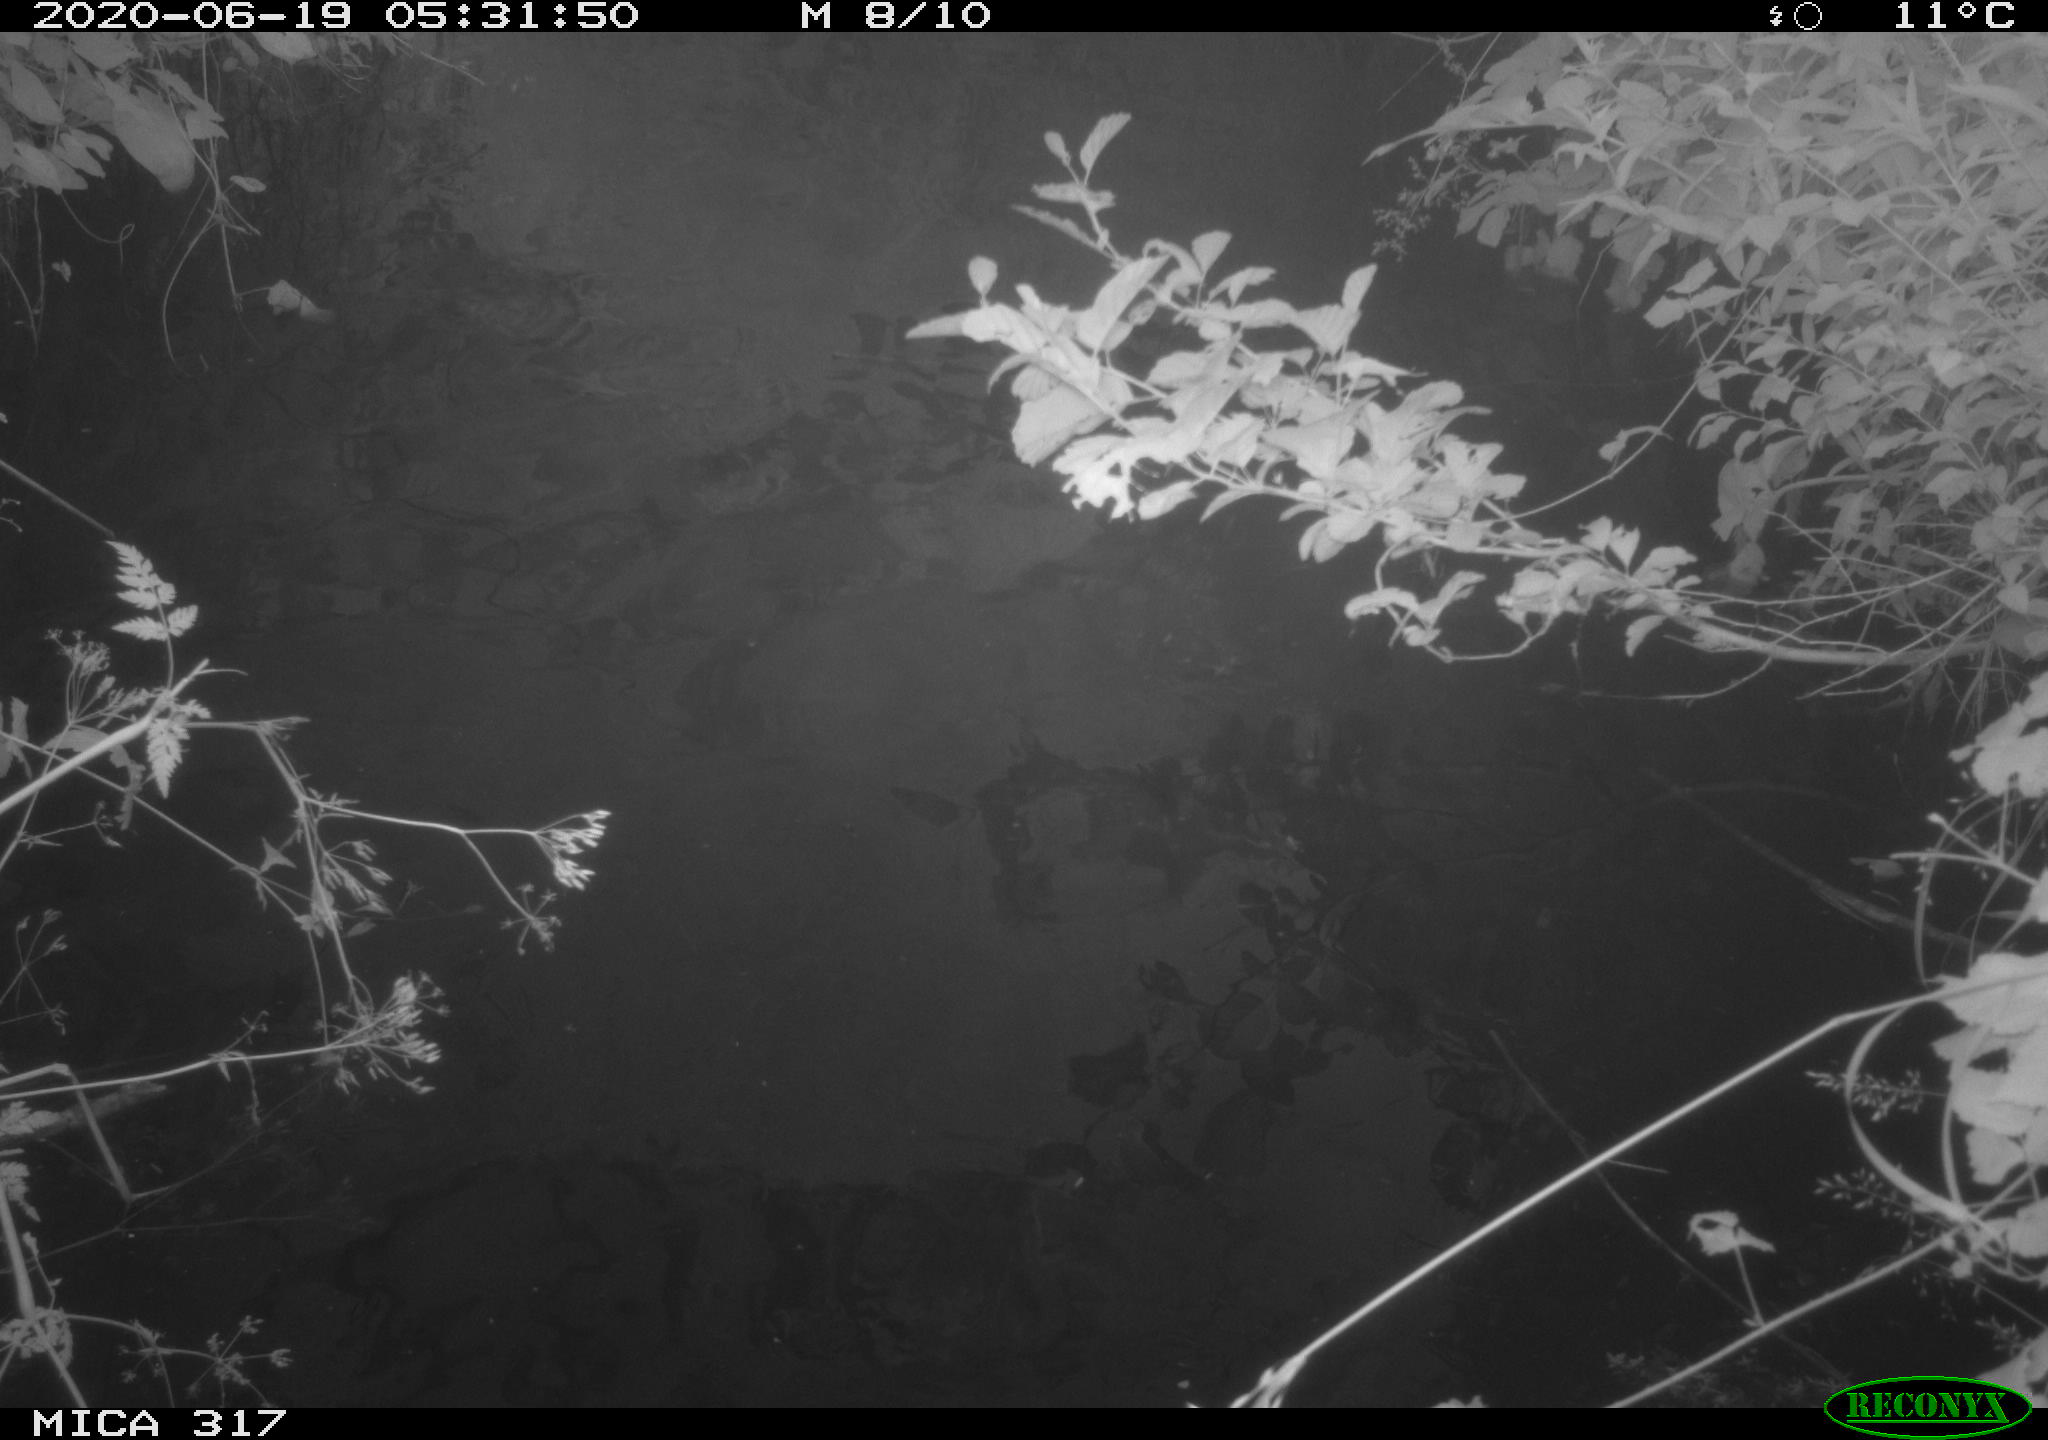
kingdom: Animalia
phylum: Chordata
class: Aves
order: Gruiformes
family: Rallidae
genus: Fulica
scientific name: Fulica atra
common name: Eurasian coot
